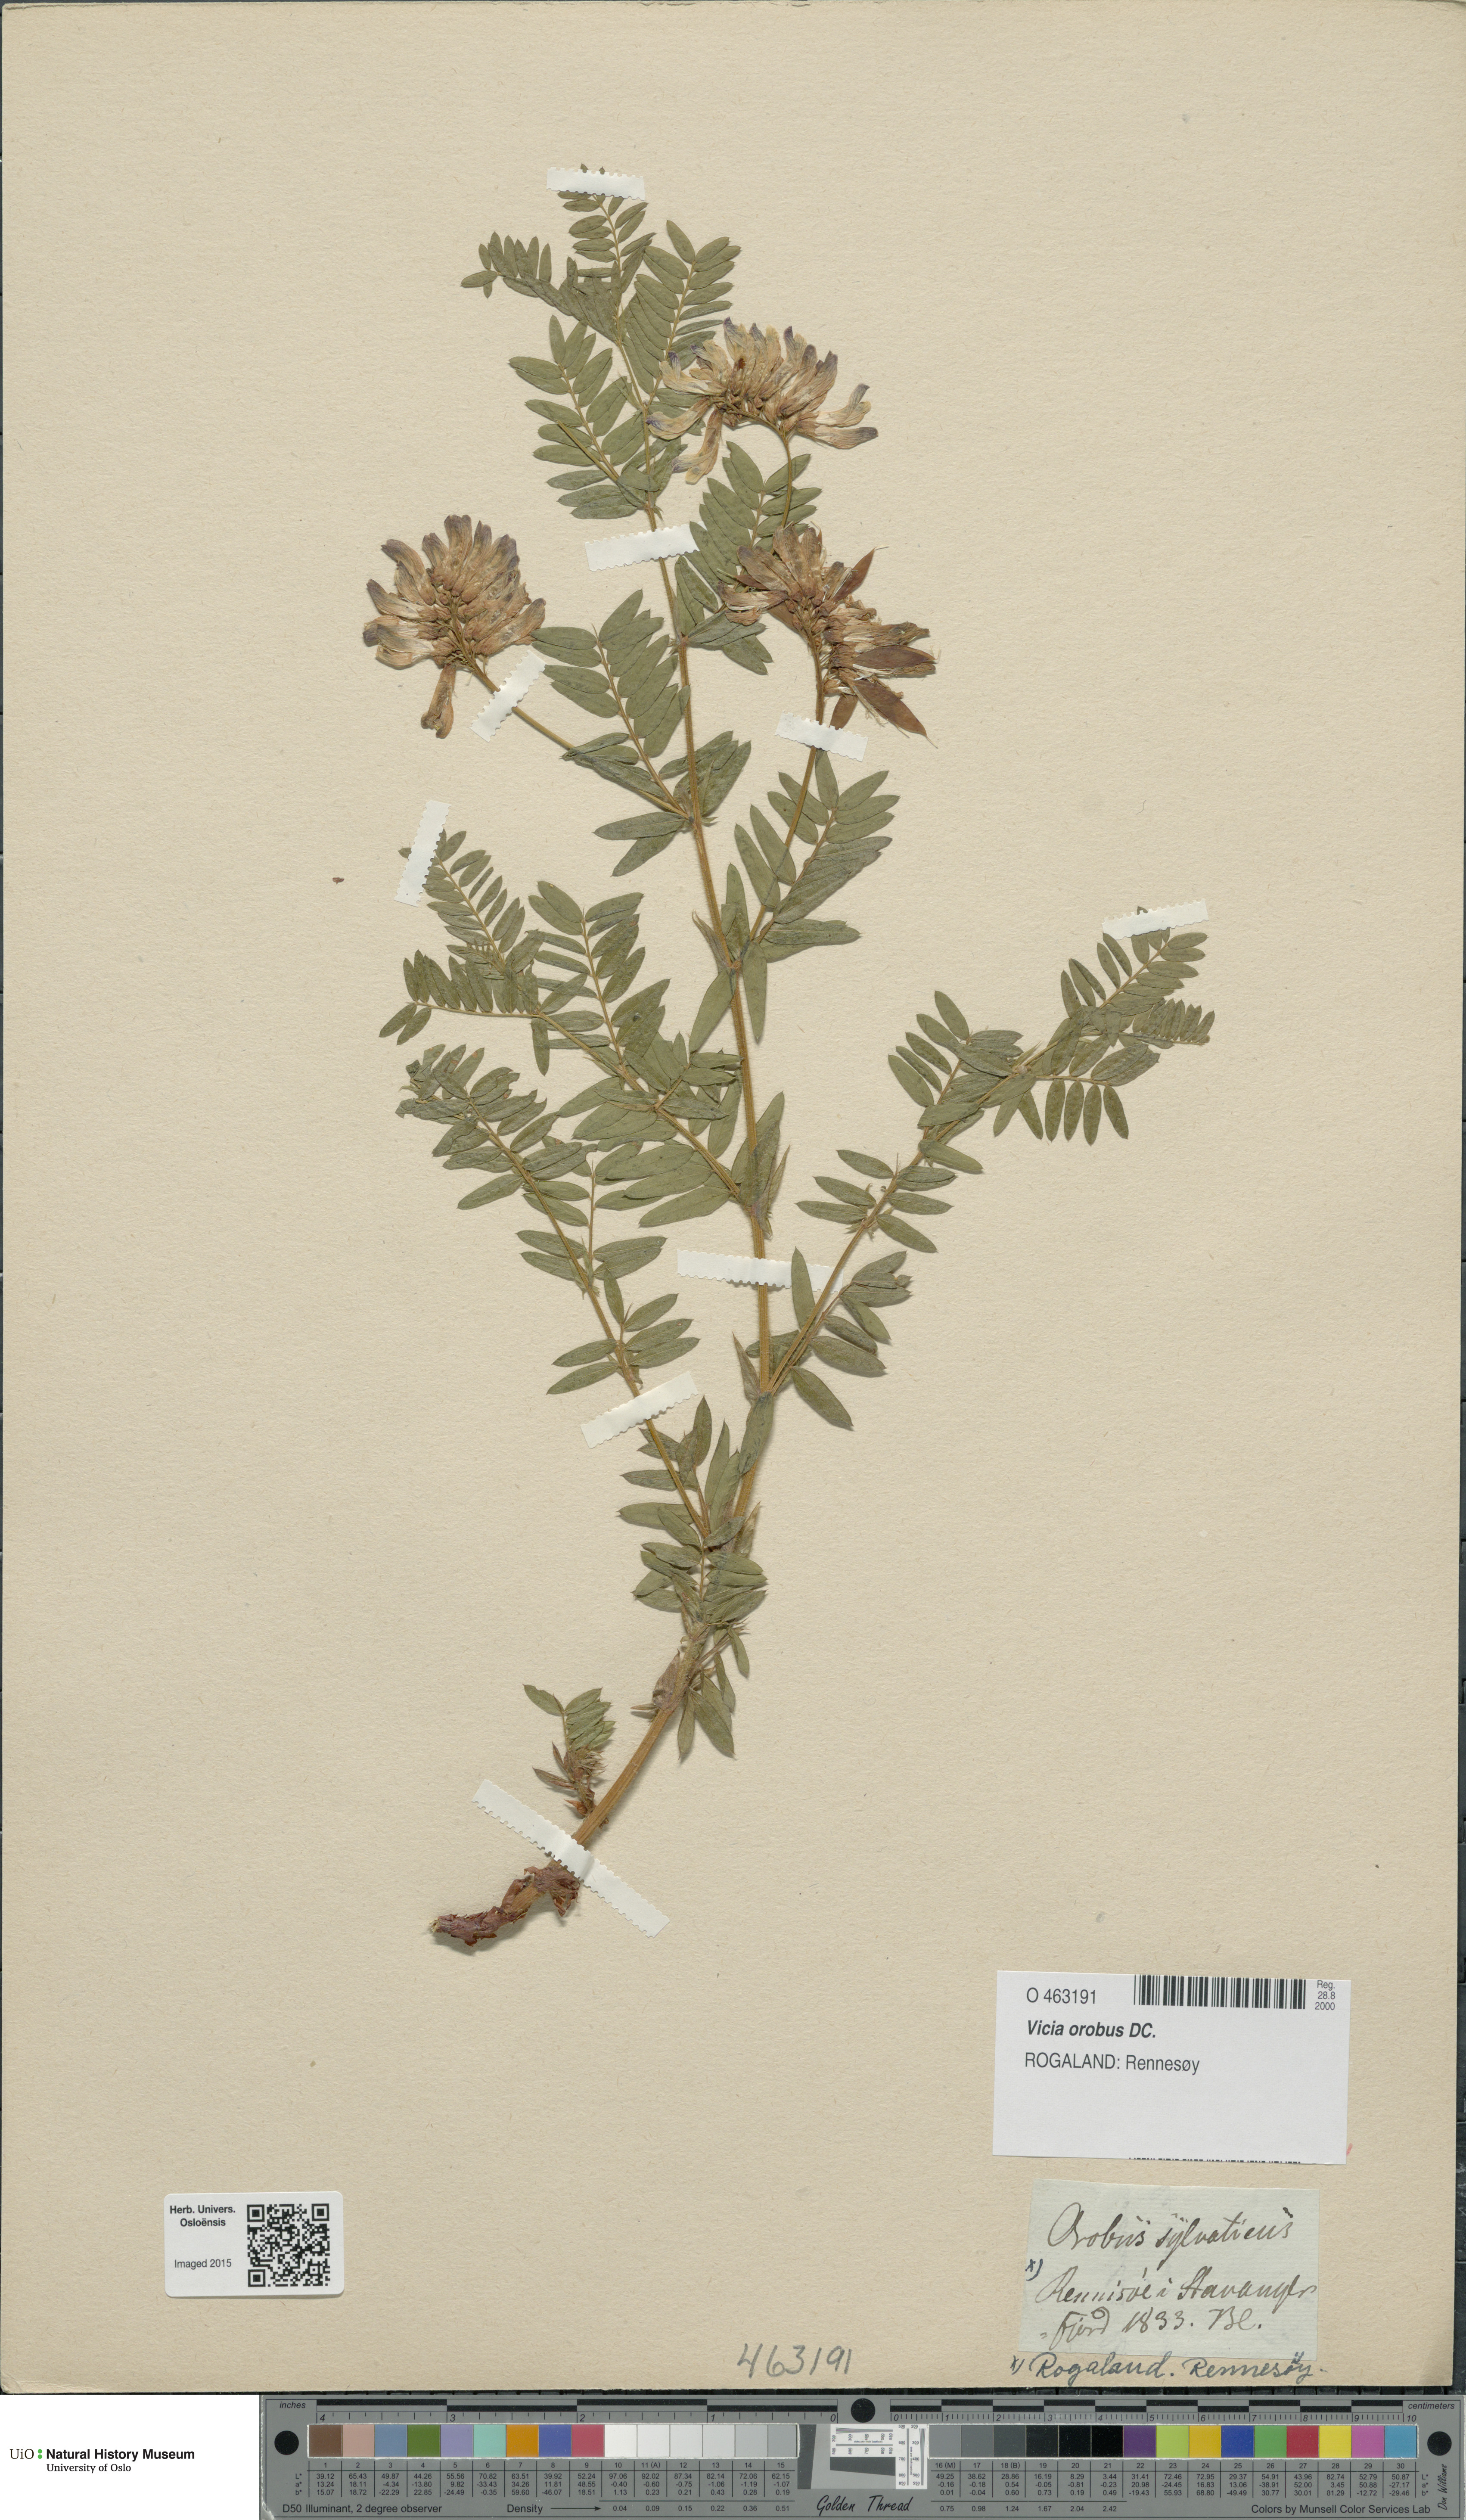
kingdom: Plantae
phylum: Tracheophyta
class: Magnoliopsida
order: Fabales
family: Fabaceae
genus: Vicia
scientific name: Vicia orobus
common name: Wood bitter-vetch
